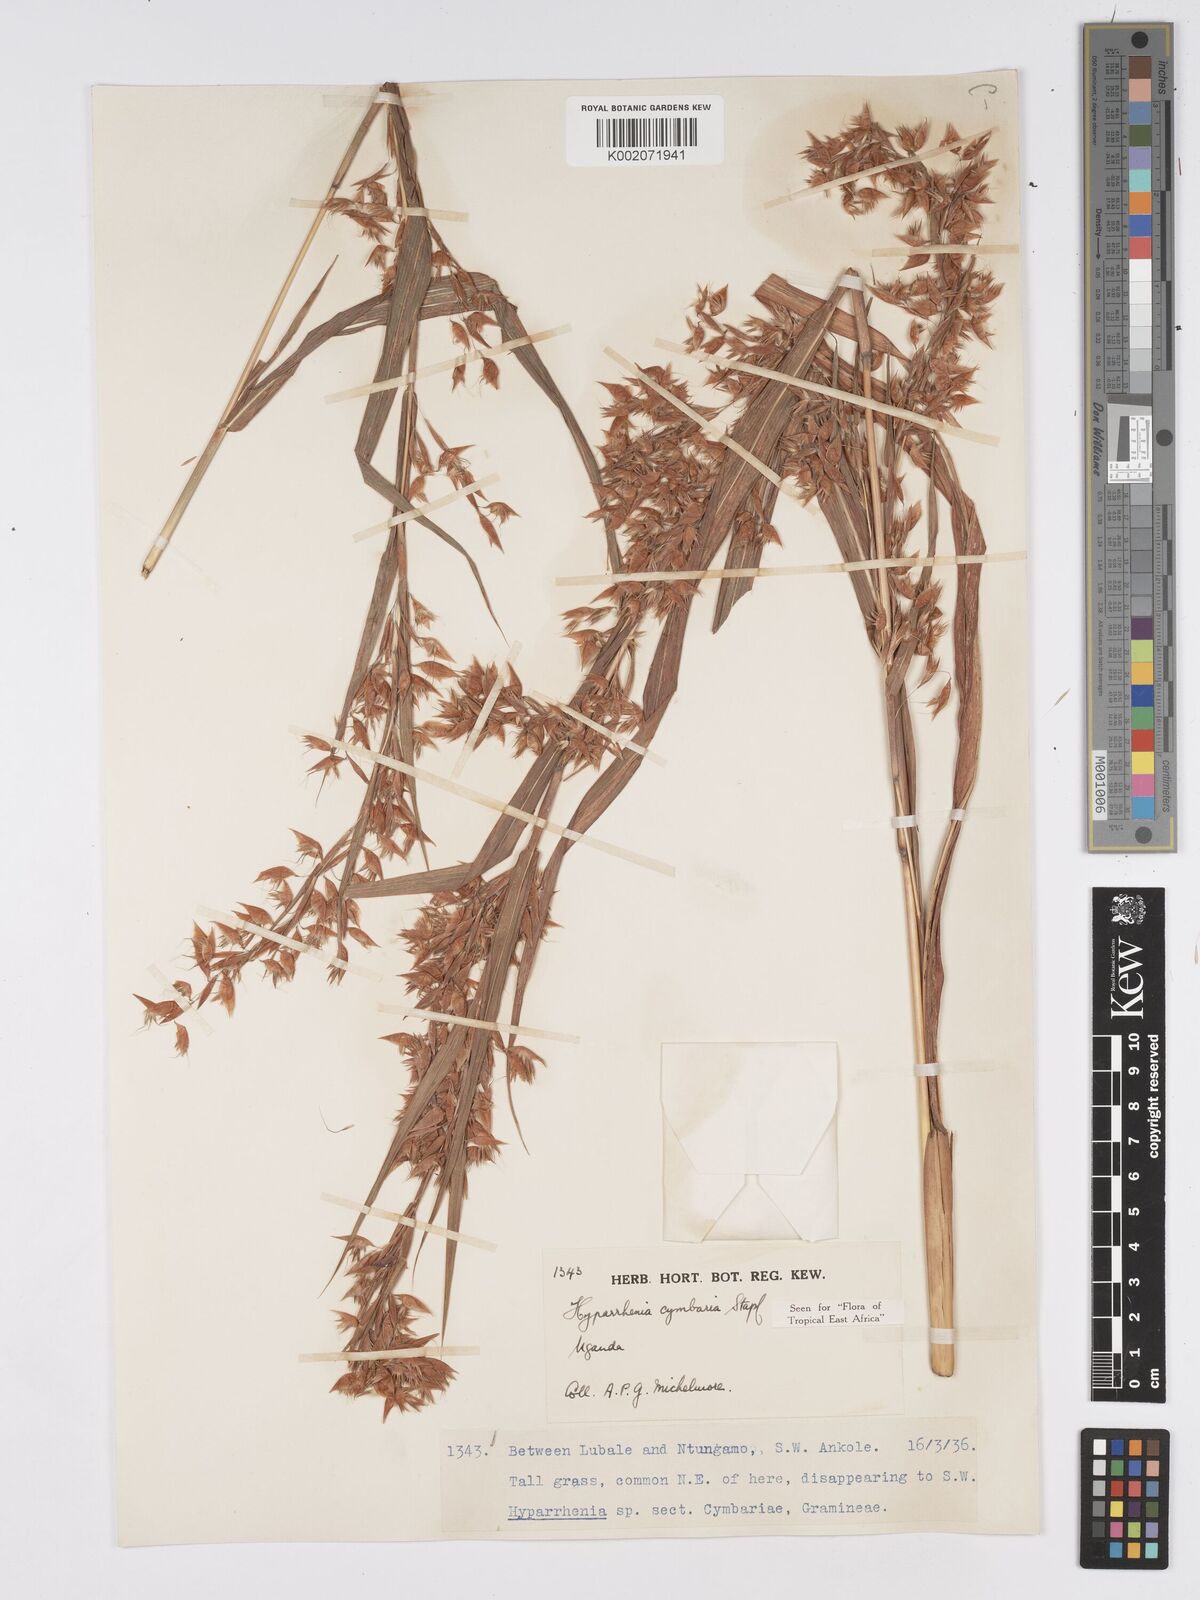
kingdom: Plantae
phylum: Tracheophyta
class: Liliopsida
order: Poales
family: Poaceae
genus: Hyparrhenia
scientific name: Hyparrhenia cymbaria
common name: Boat thatching grass
